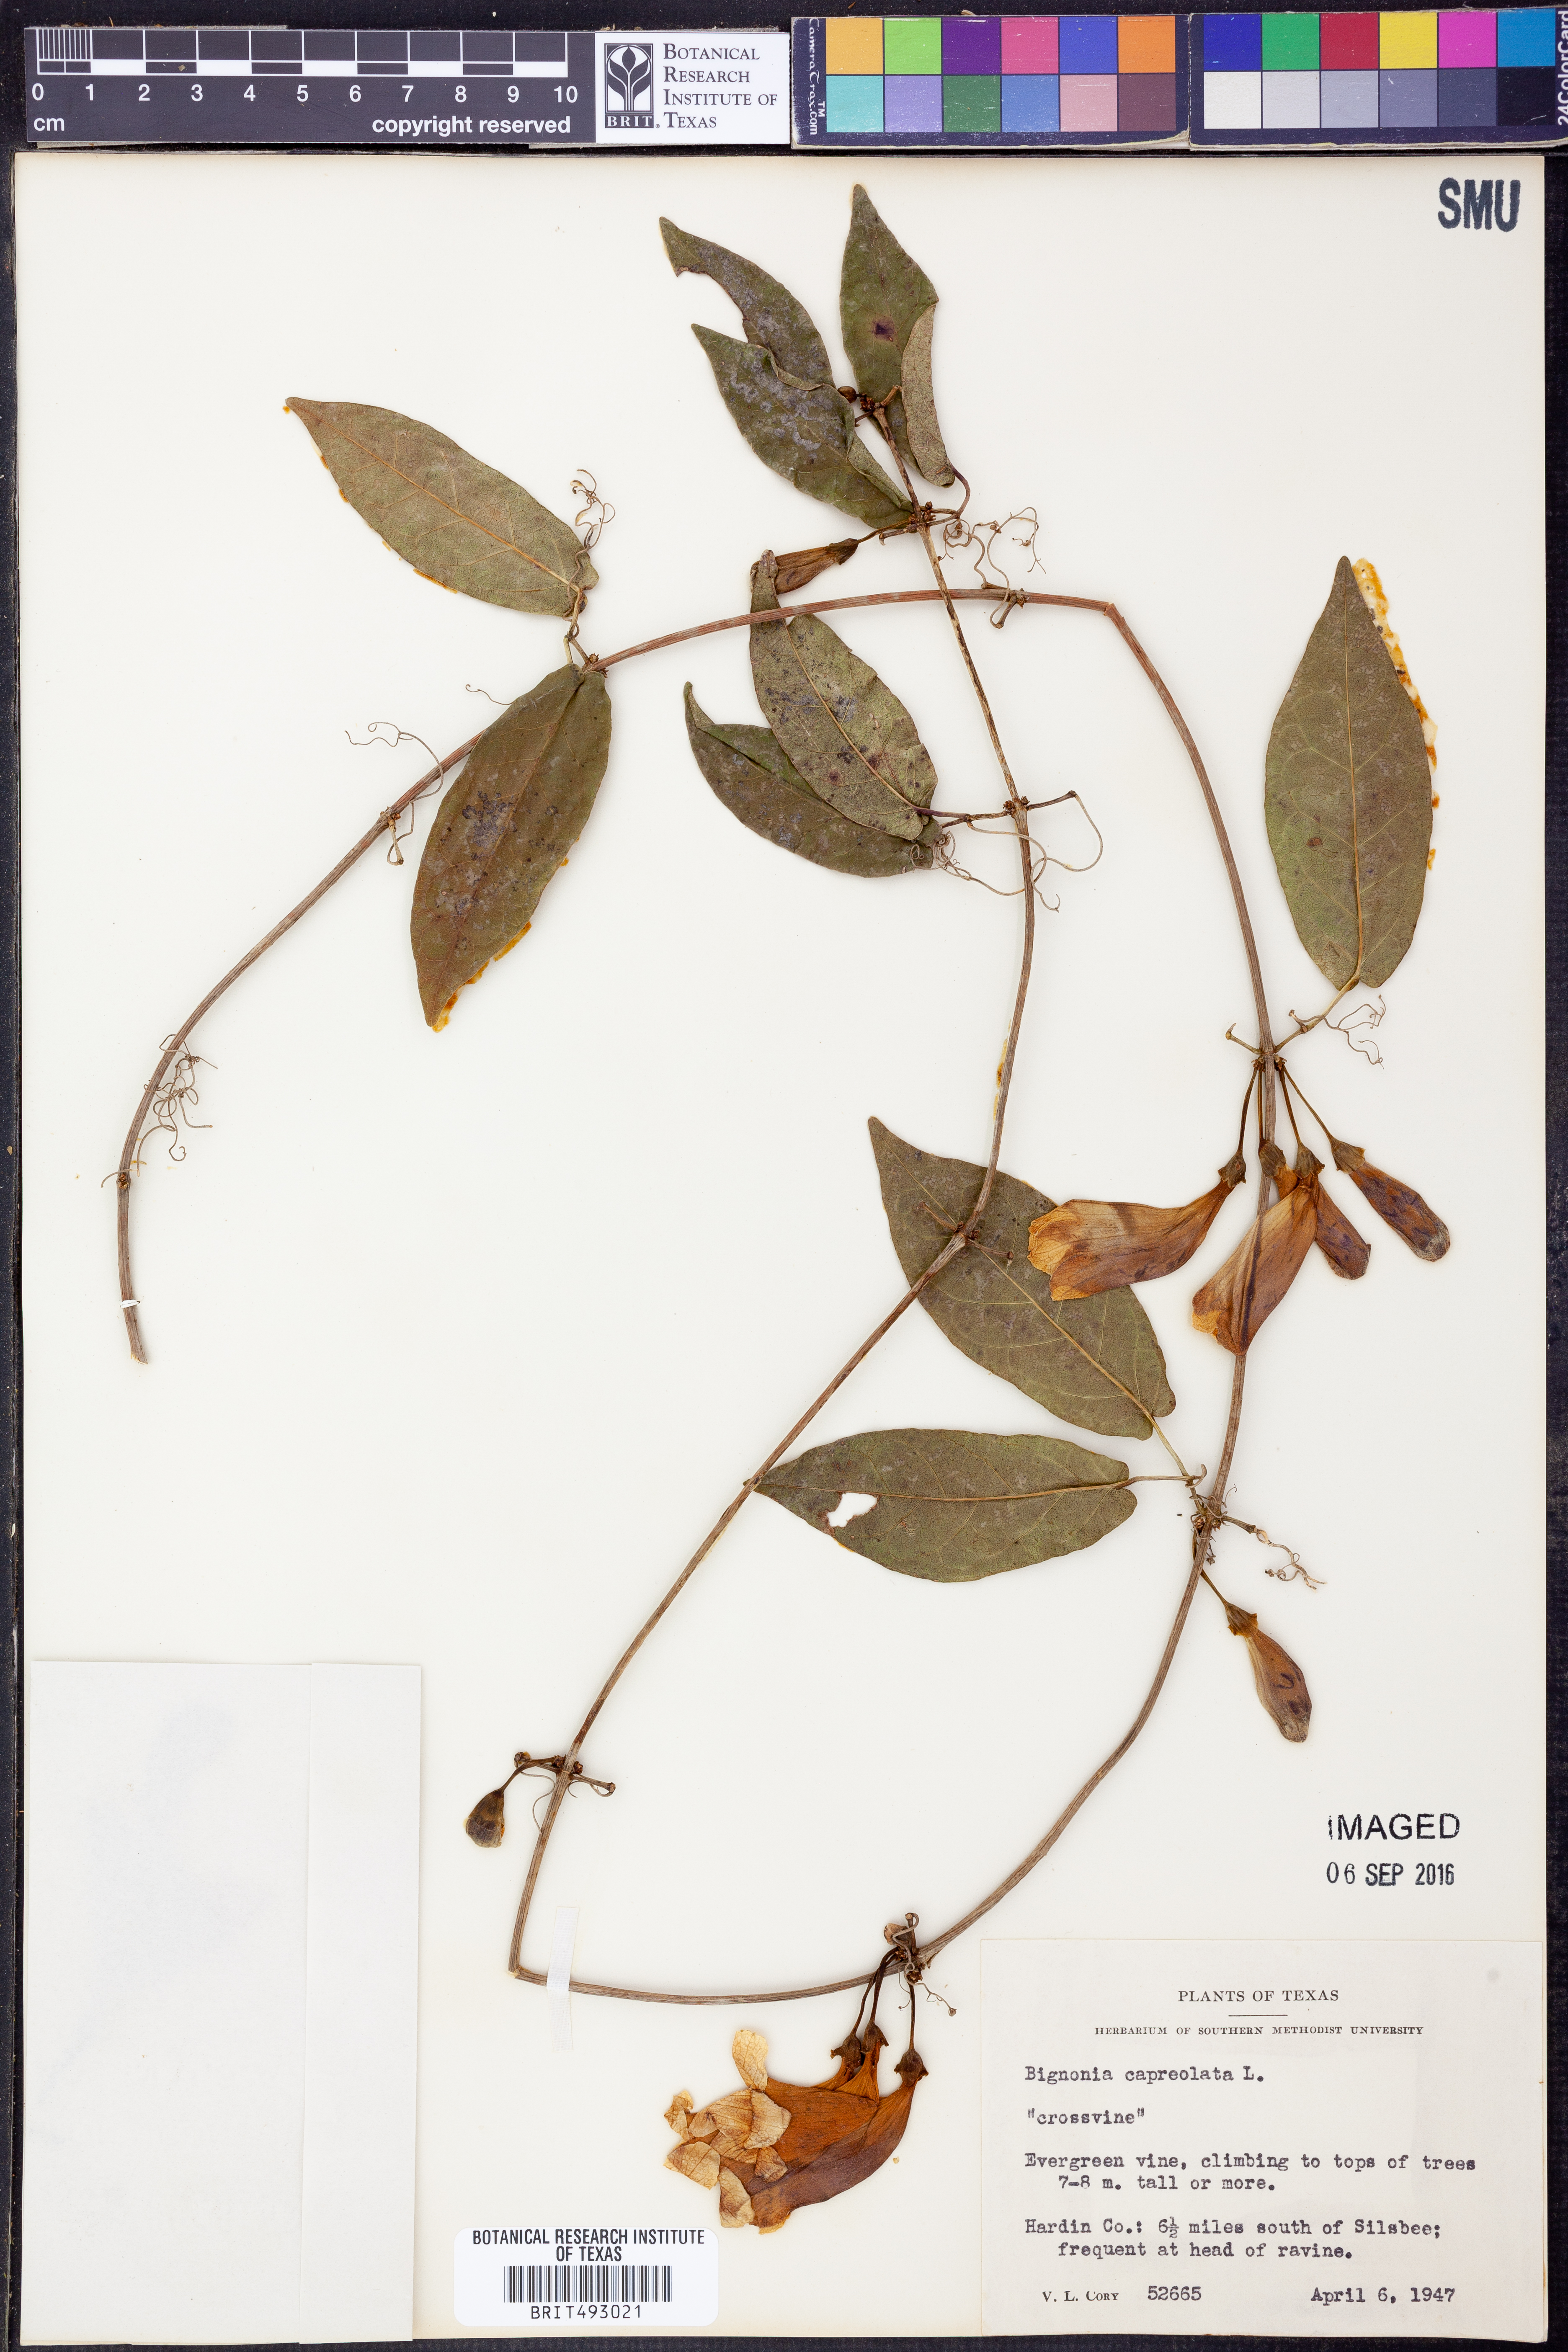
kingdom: Plantae
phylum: Tracheophyta
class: Magnoliopsida
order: Lamiales
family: Bignoniaceae
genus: Bignonia
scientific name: Bignonia capreolata
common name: Crossvine
